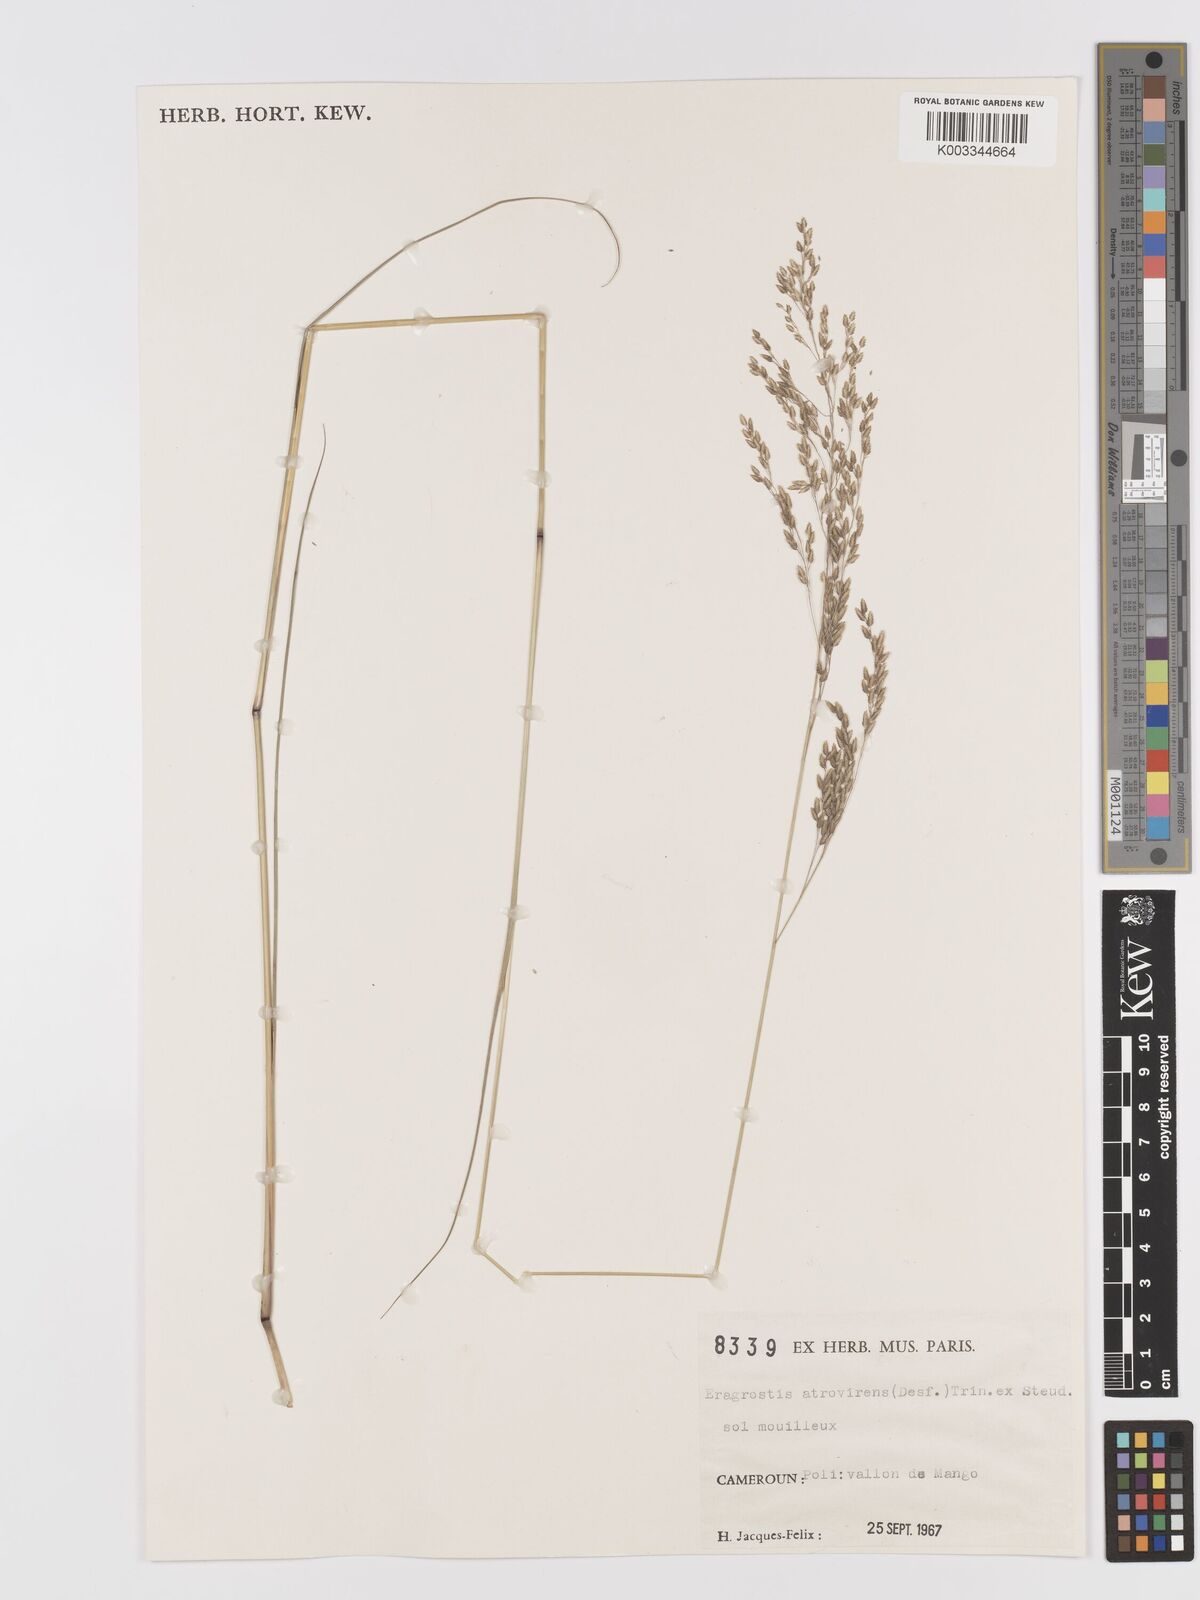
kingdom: Plantae
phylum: Tracheophyta
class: Liliopsida
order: Poales
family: Poaceae
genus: Eragrostis
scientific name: Eragrostis atrovirens
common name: Thalia lovegrass
